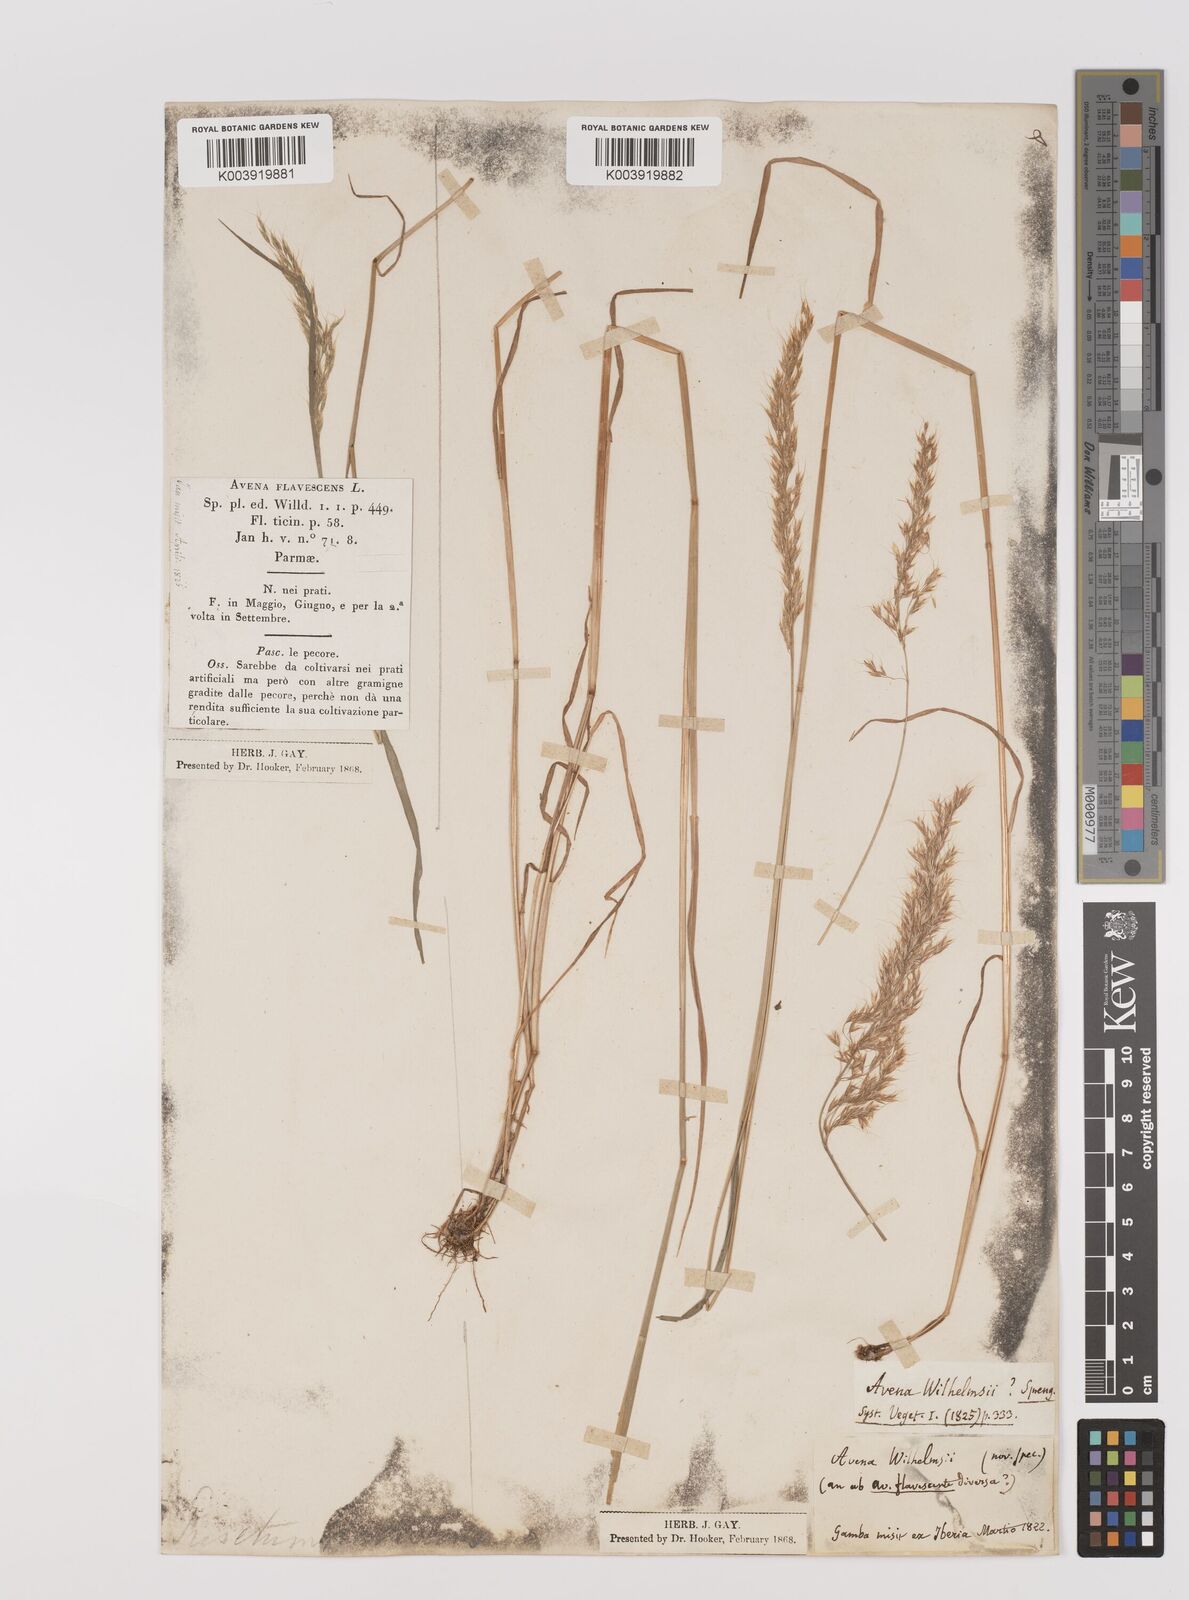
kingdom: Plantae
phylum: Tracheophyta
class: Liliopsida
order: Poales
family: Poaceae
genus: Trisetum
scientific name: Trisetum flavescens
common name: Yellow oat-grass
